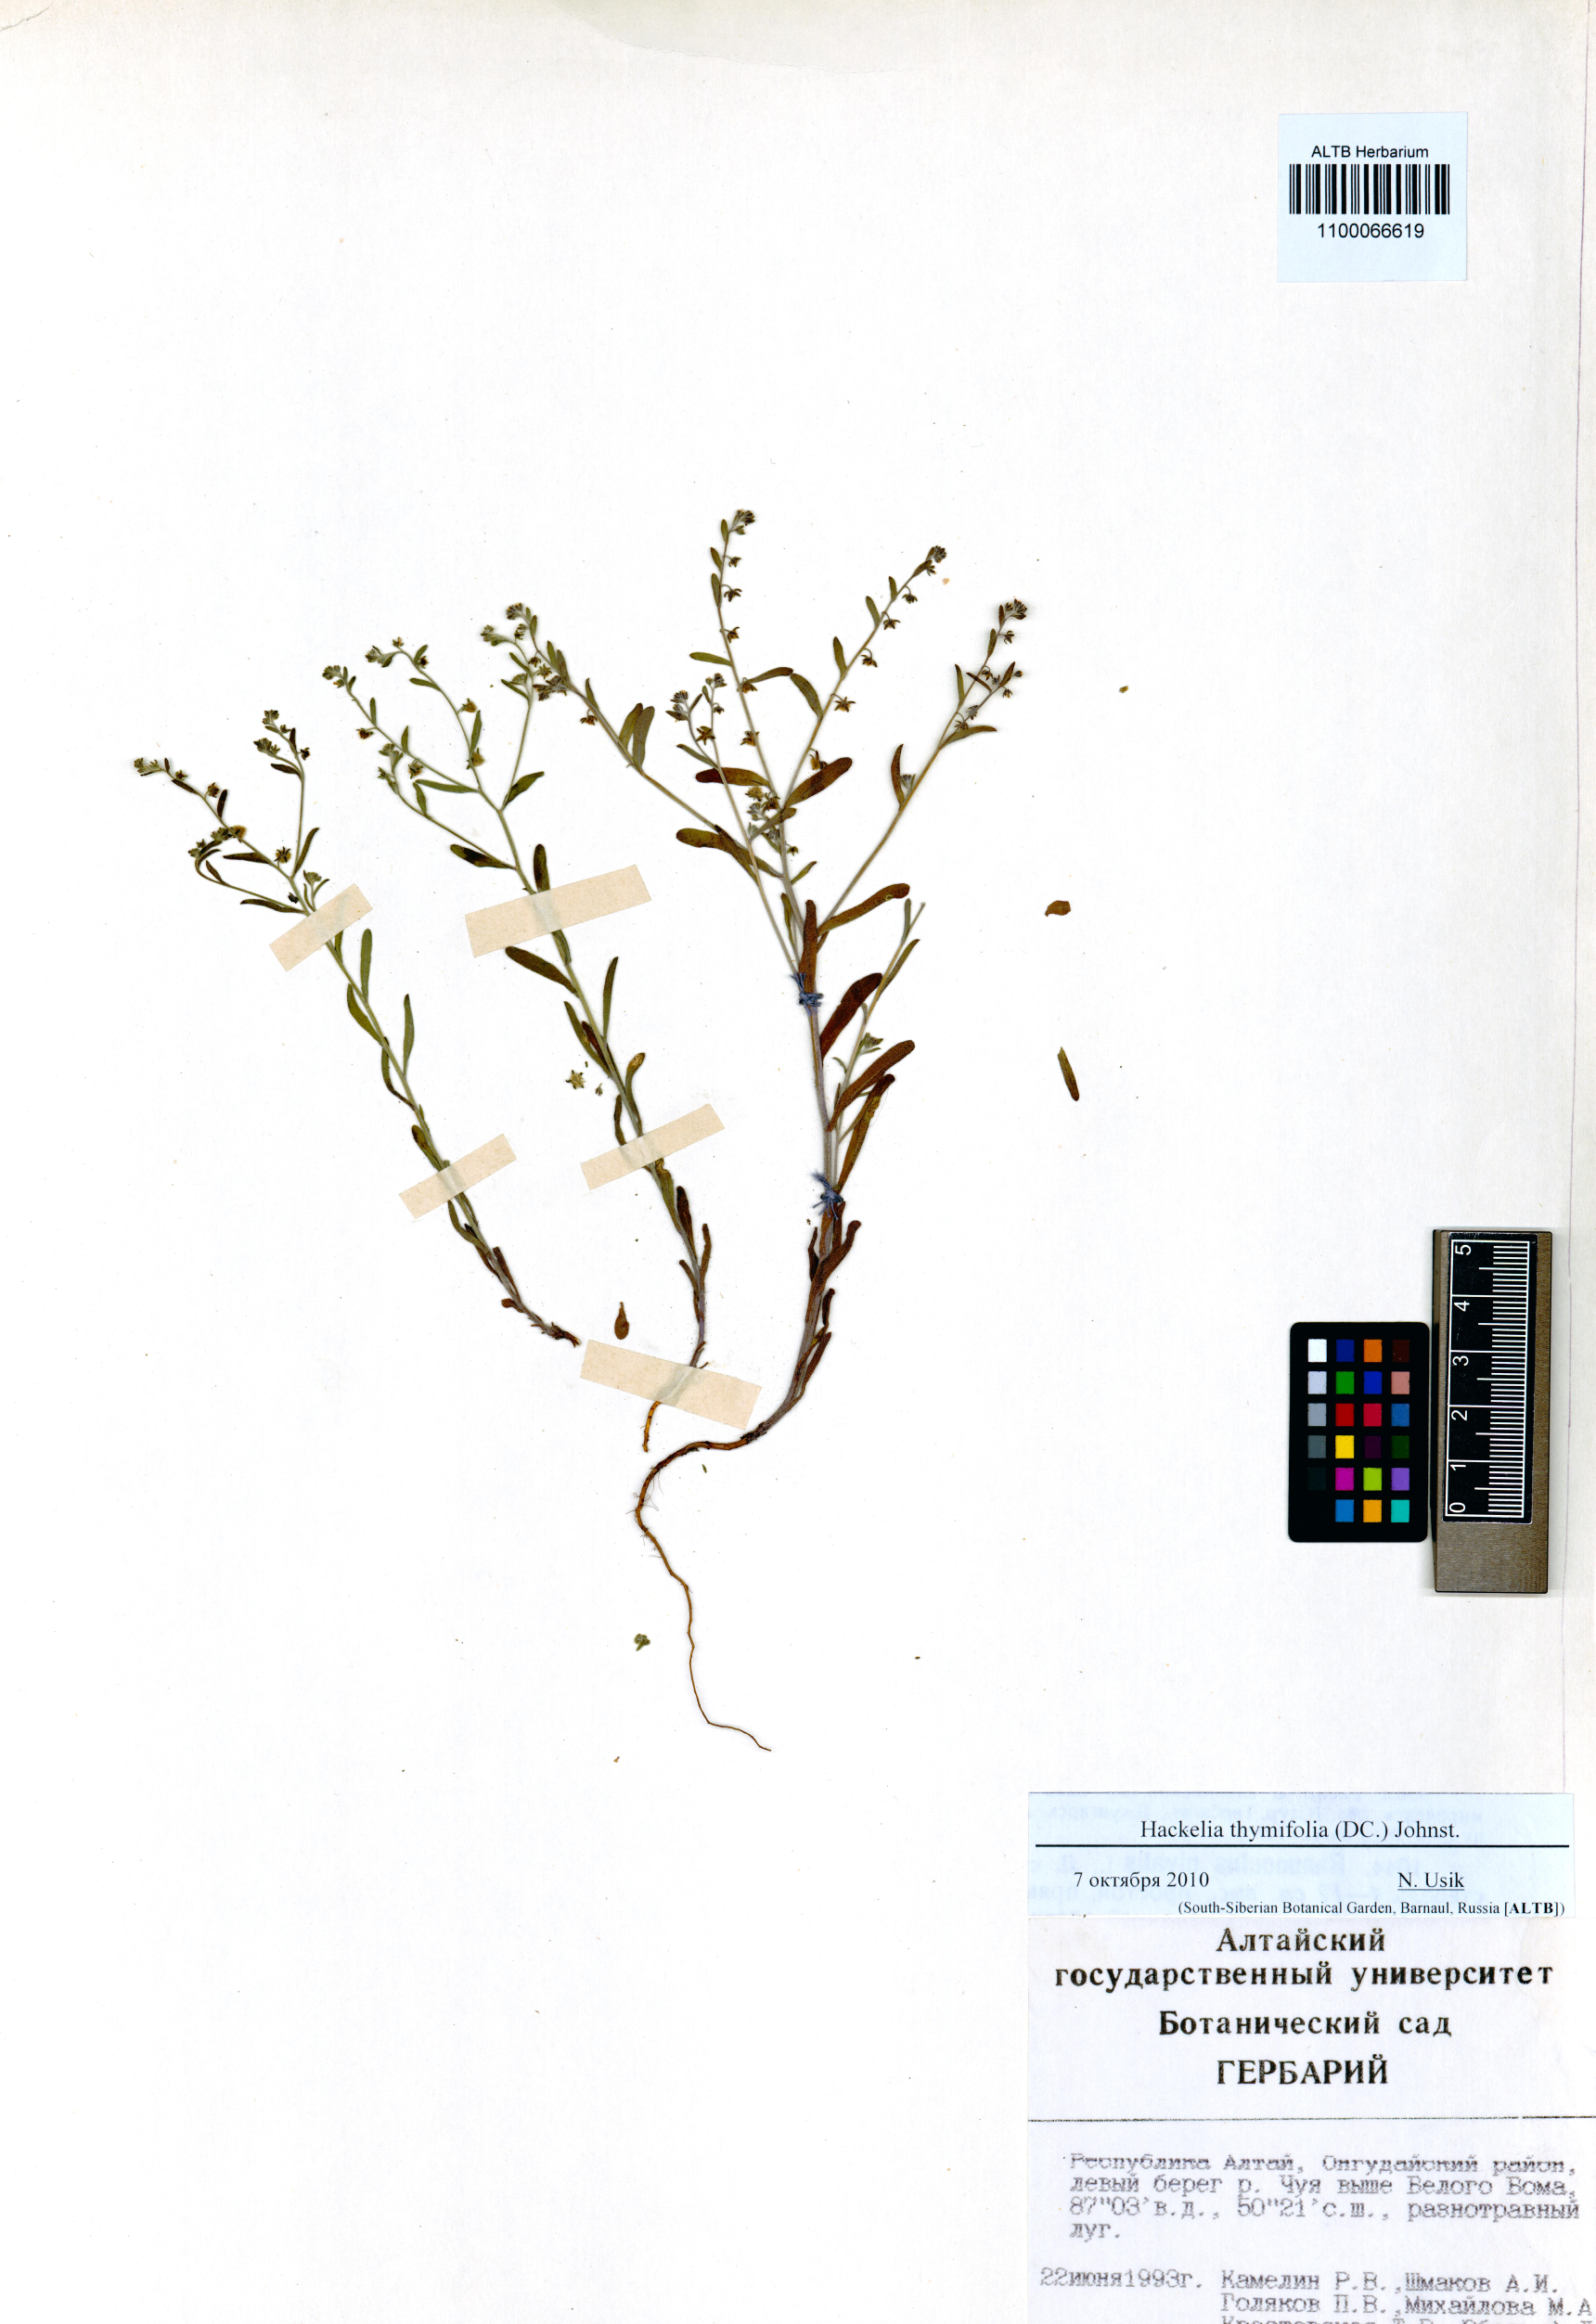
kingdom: Plantae
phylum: Tracheophyta
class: Magnoliopsida
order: Boraginales
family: Boraginaceae
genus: Eritrichium
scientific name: Eritrichium thymifolium
